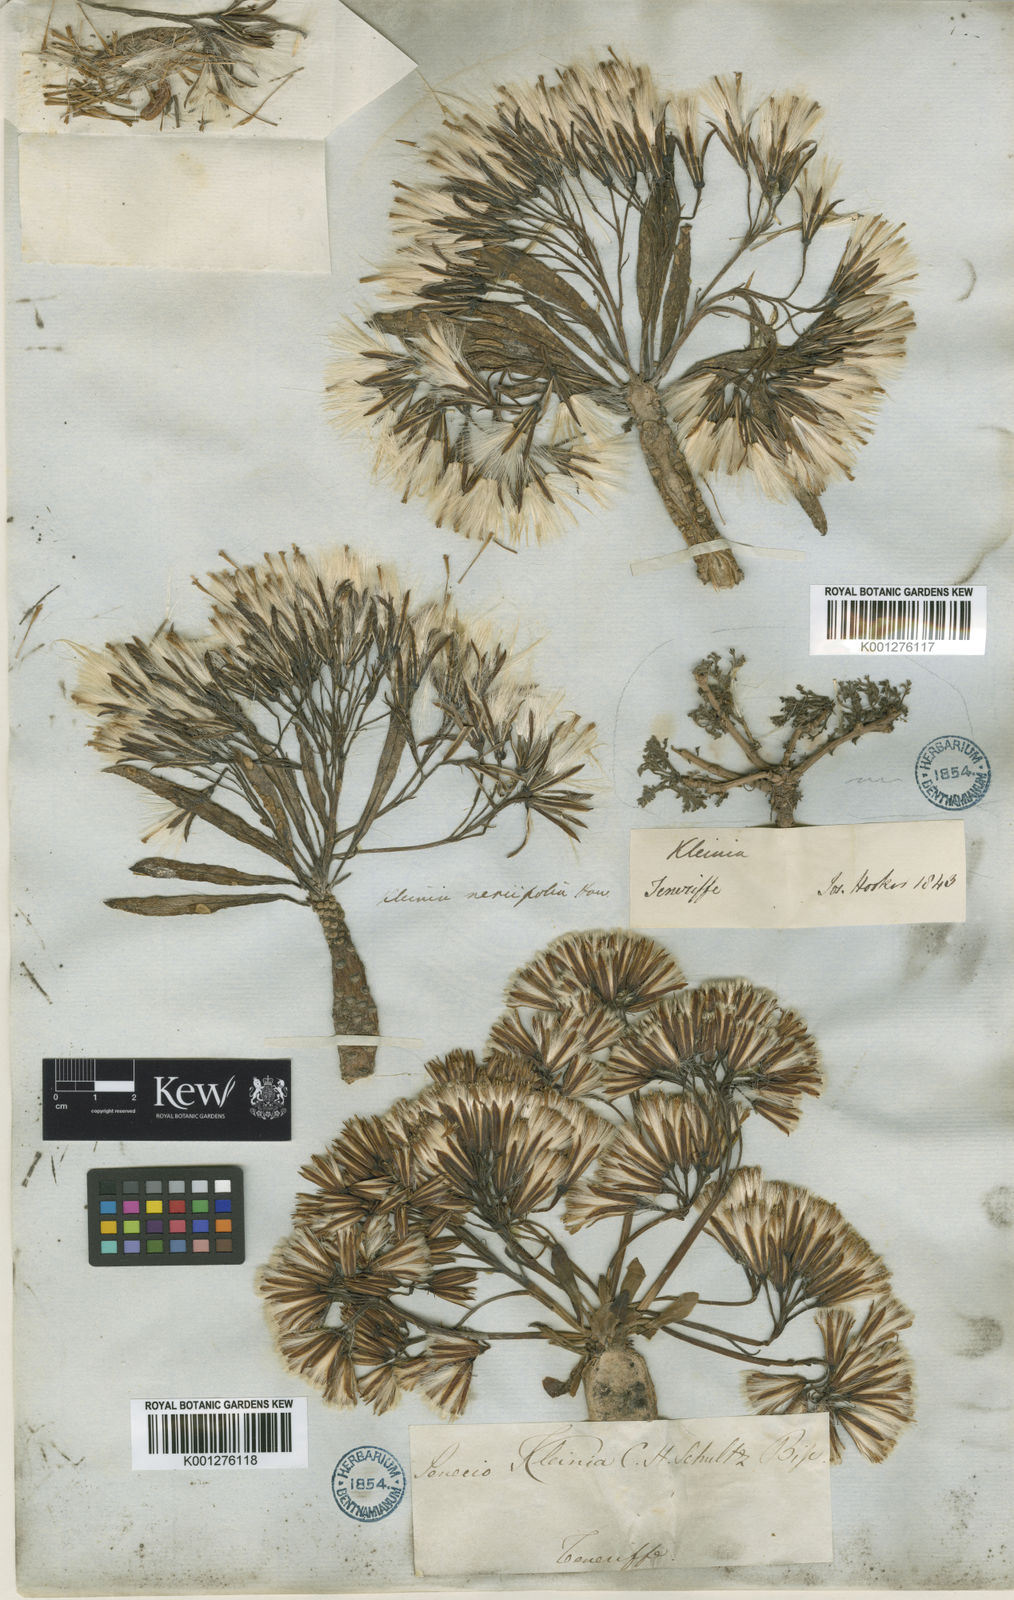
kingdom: Plantae
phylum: Tracheophyta
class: Magnoliopsida
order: Asterales
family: Asteraceae
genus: Kleinia
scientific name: Kleinia neriifolia
